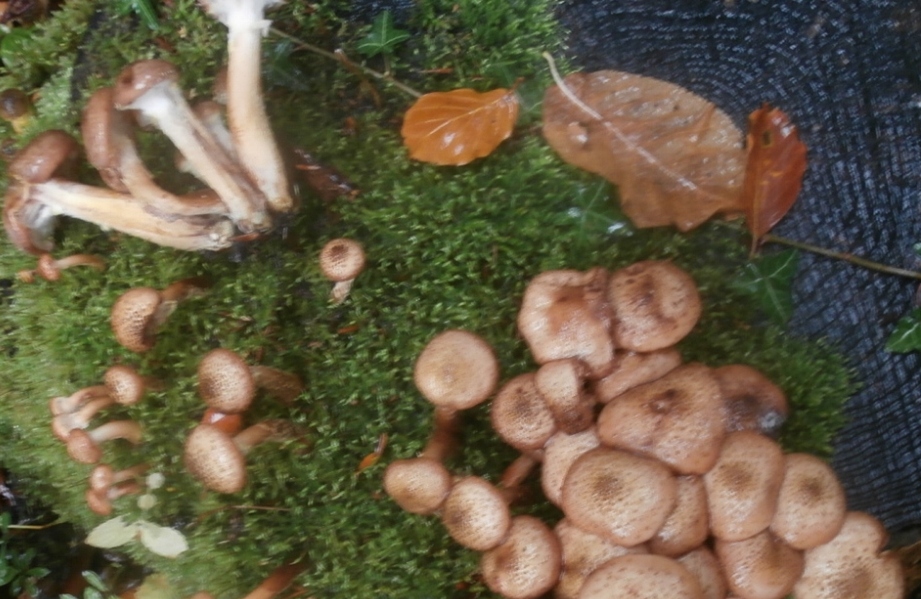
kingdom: Fungi
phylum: Basidiomycota
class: Agaricomycetes
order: Agaricales
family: Physalacriaceae
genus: Armillaria
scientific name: Armillaria ostoyae
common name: mørk honningsvamp
